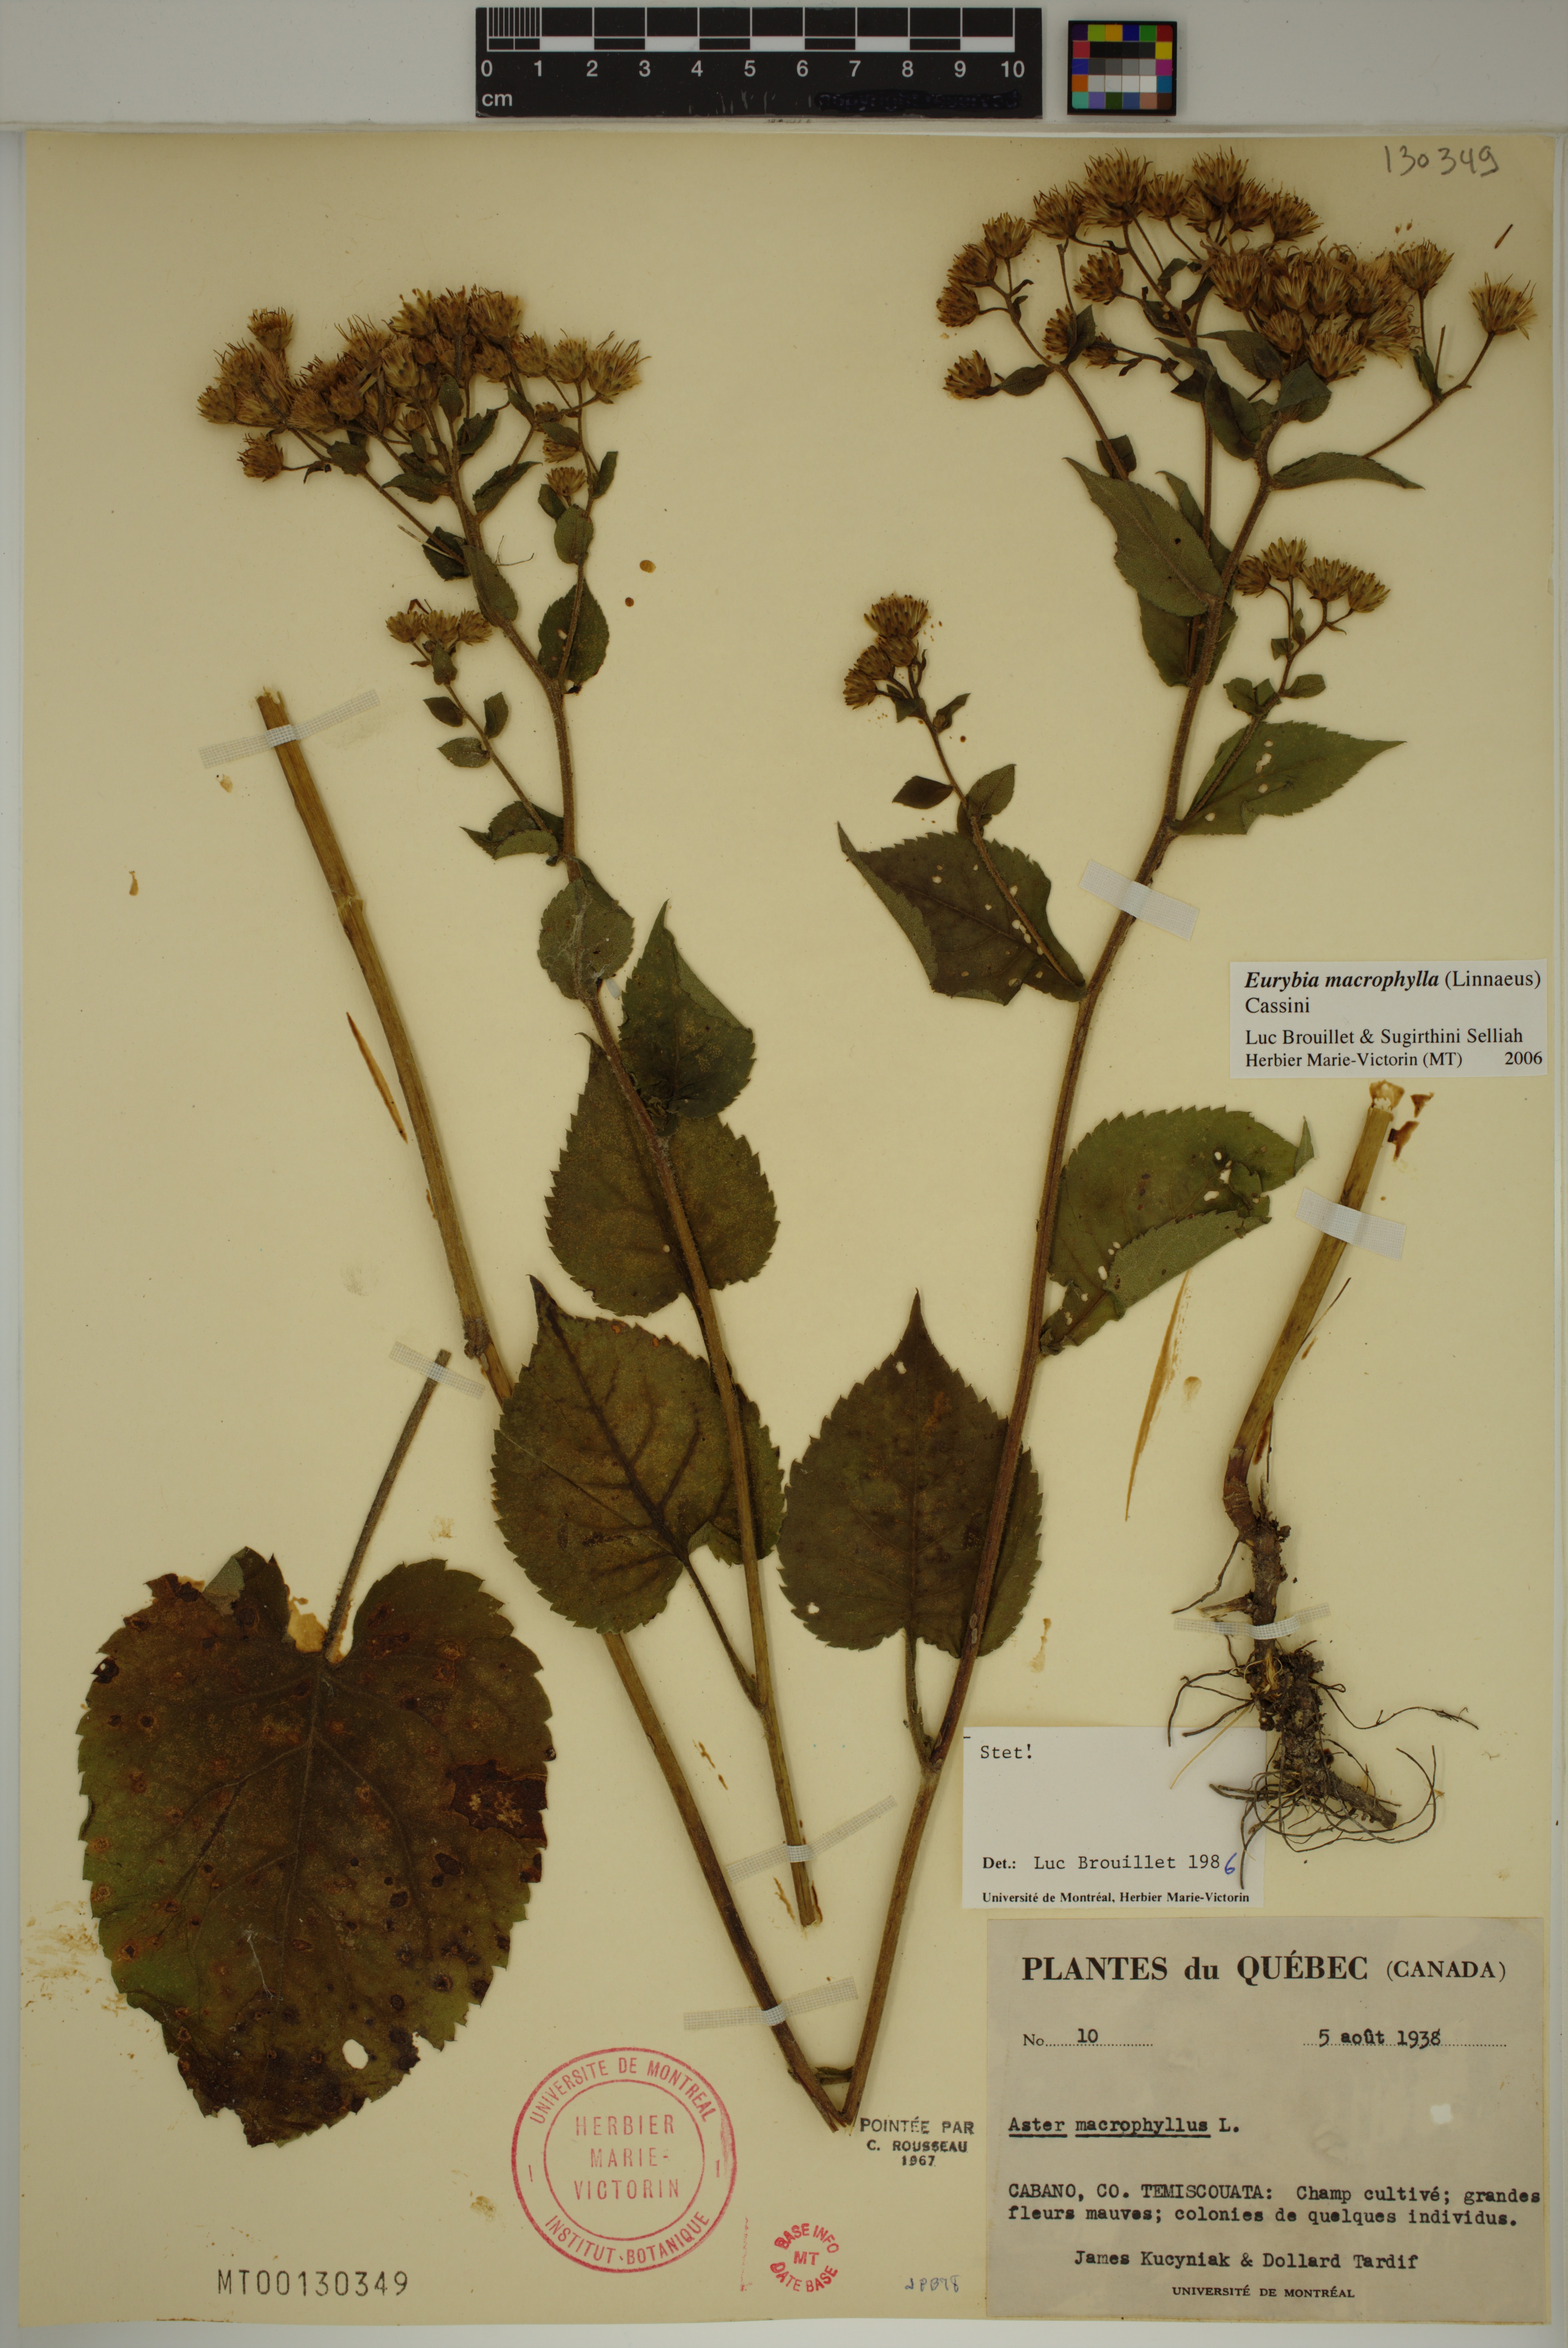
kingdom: Plantae
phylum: Tracheophyta
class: Magnoliopsida
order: Asterales
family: Asteraceae
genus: Eurybia
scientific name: Eurybia macrophylla
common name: Big-leaved aster
